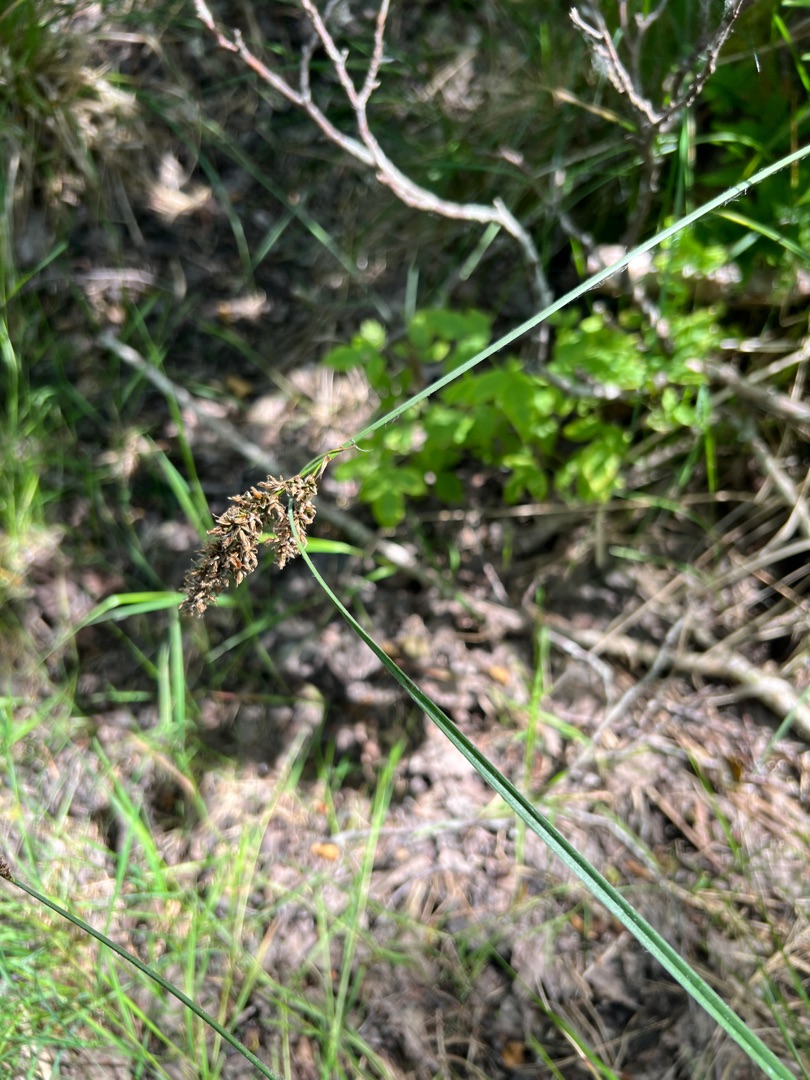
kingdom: Plantae
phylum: Tracheophyta
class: Liliopsida
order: Poales
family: Cyperaceae
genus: Carex
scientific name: Carex paniculata
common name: Top-star
